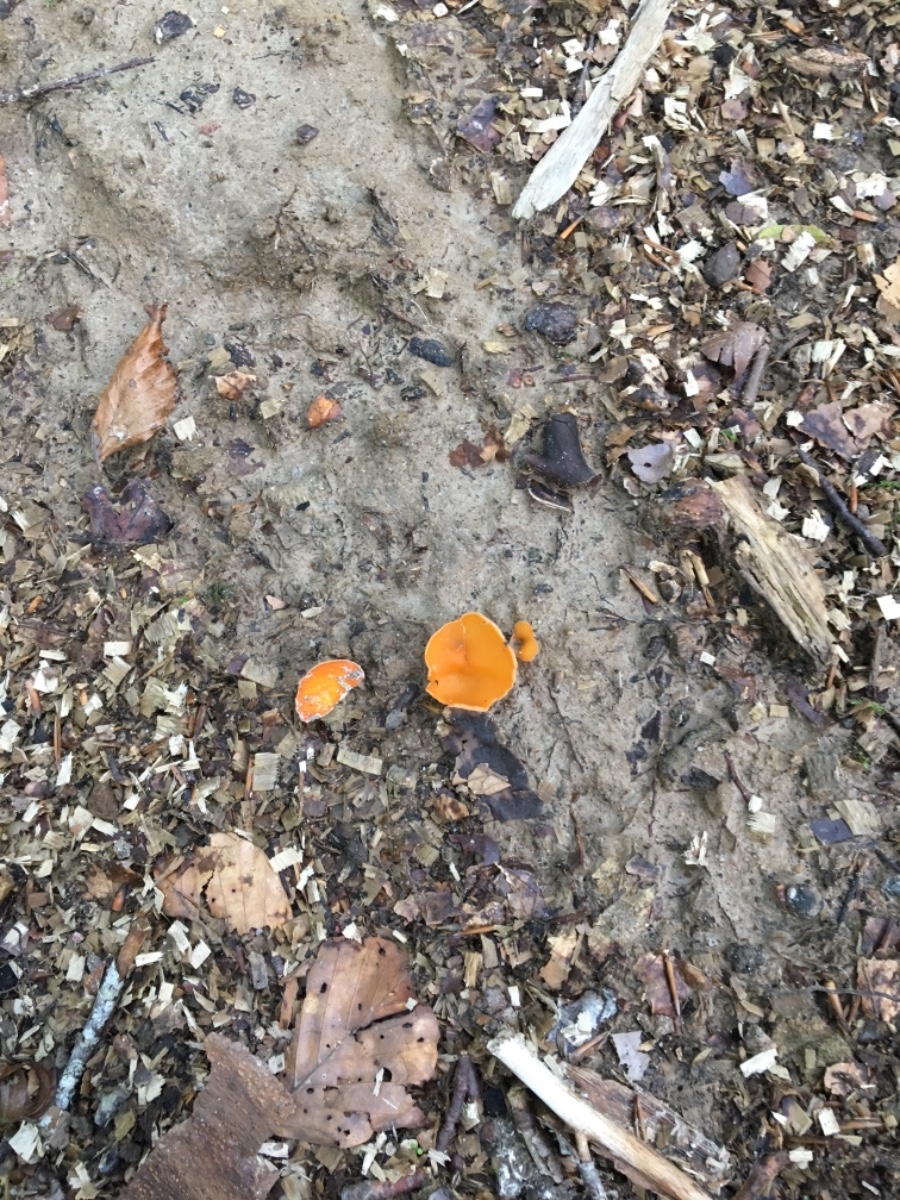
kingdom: Fungi
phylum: Ascomycota
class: Pezizomycetes
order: Pezizales
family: Pyronemataceae
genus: Aleuria
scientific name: Aleuria aurantia
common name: almindelig orangebæger
